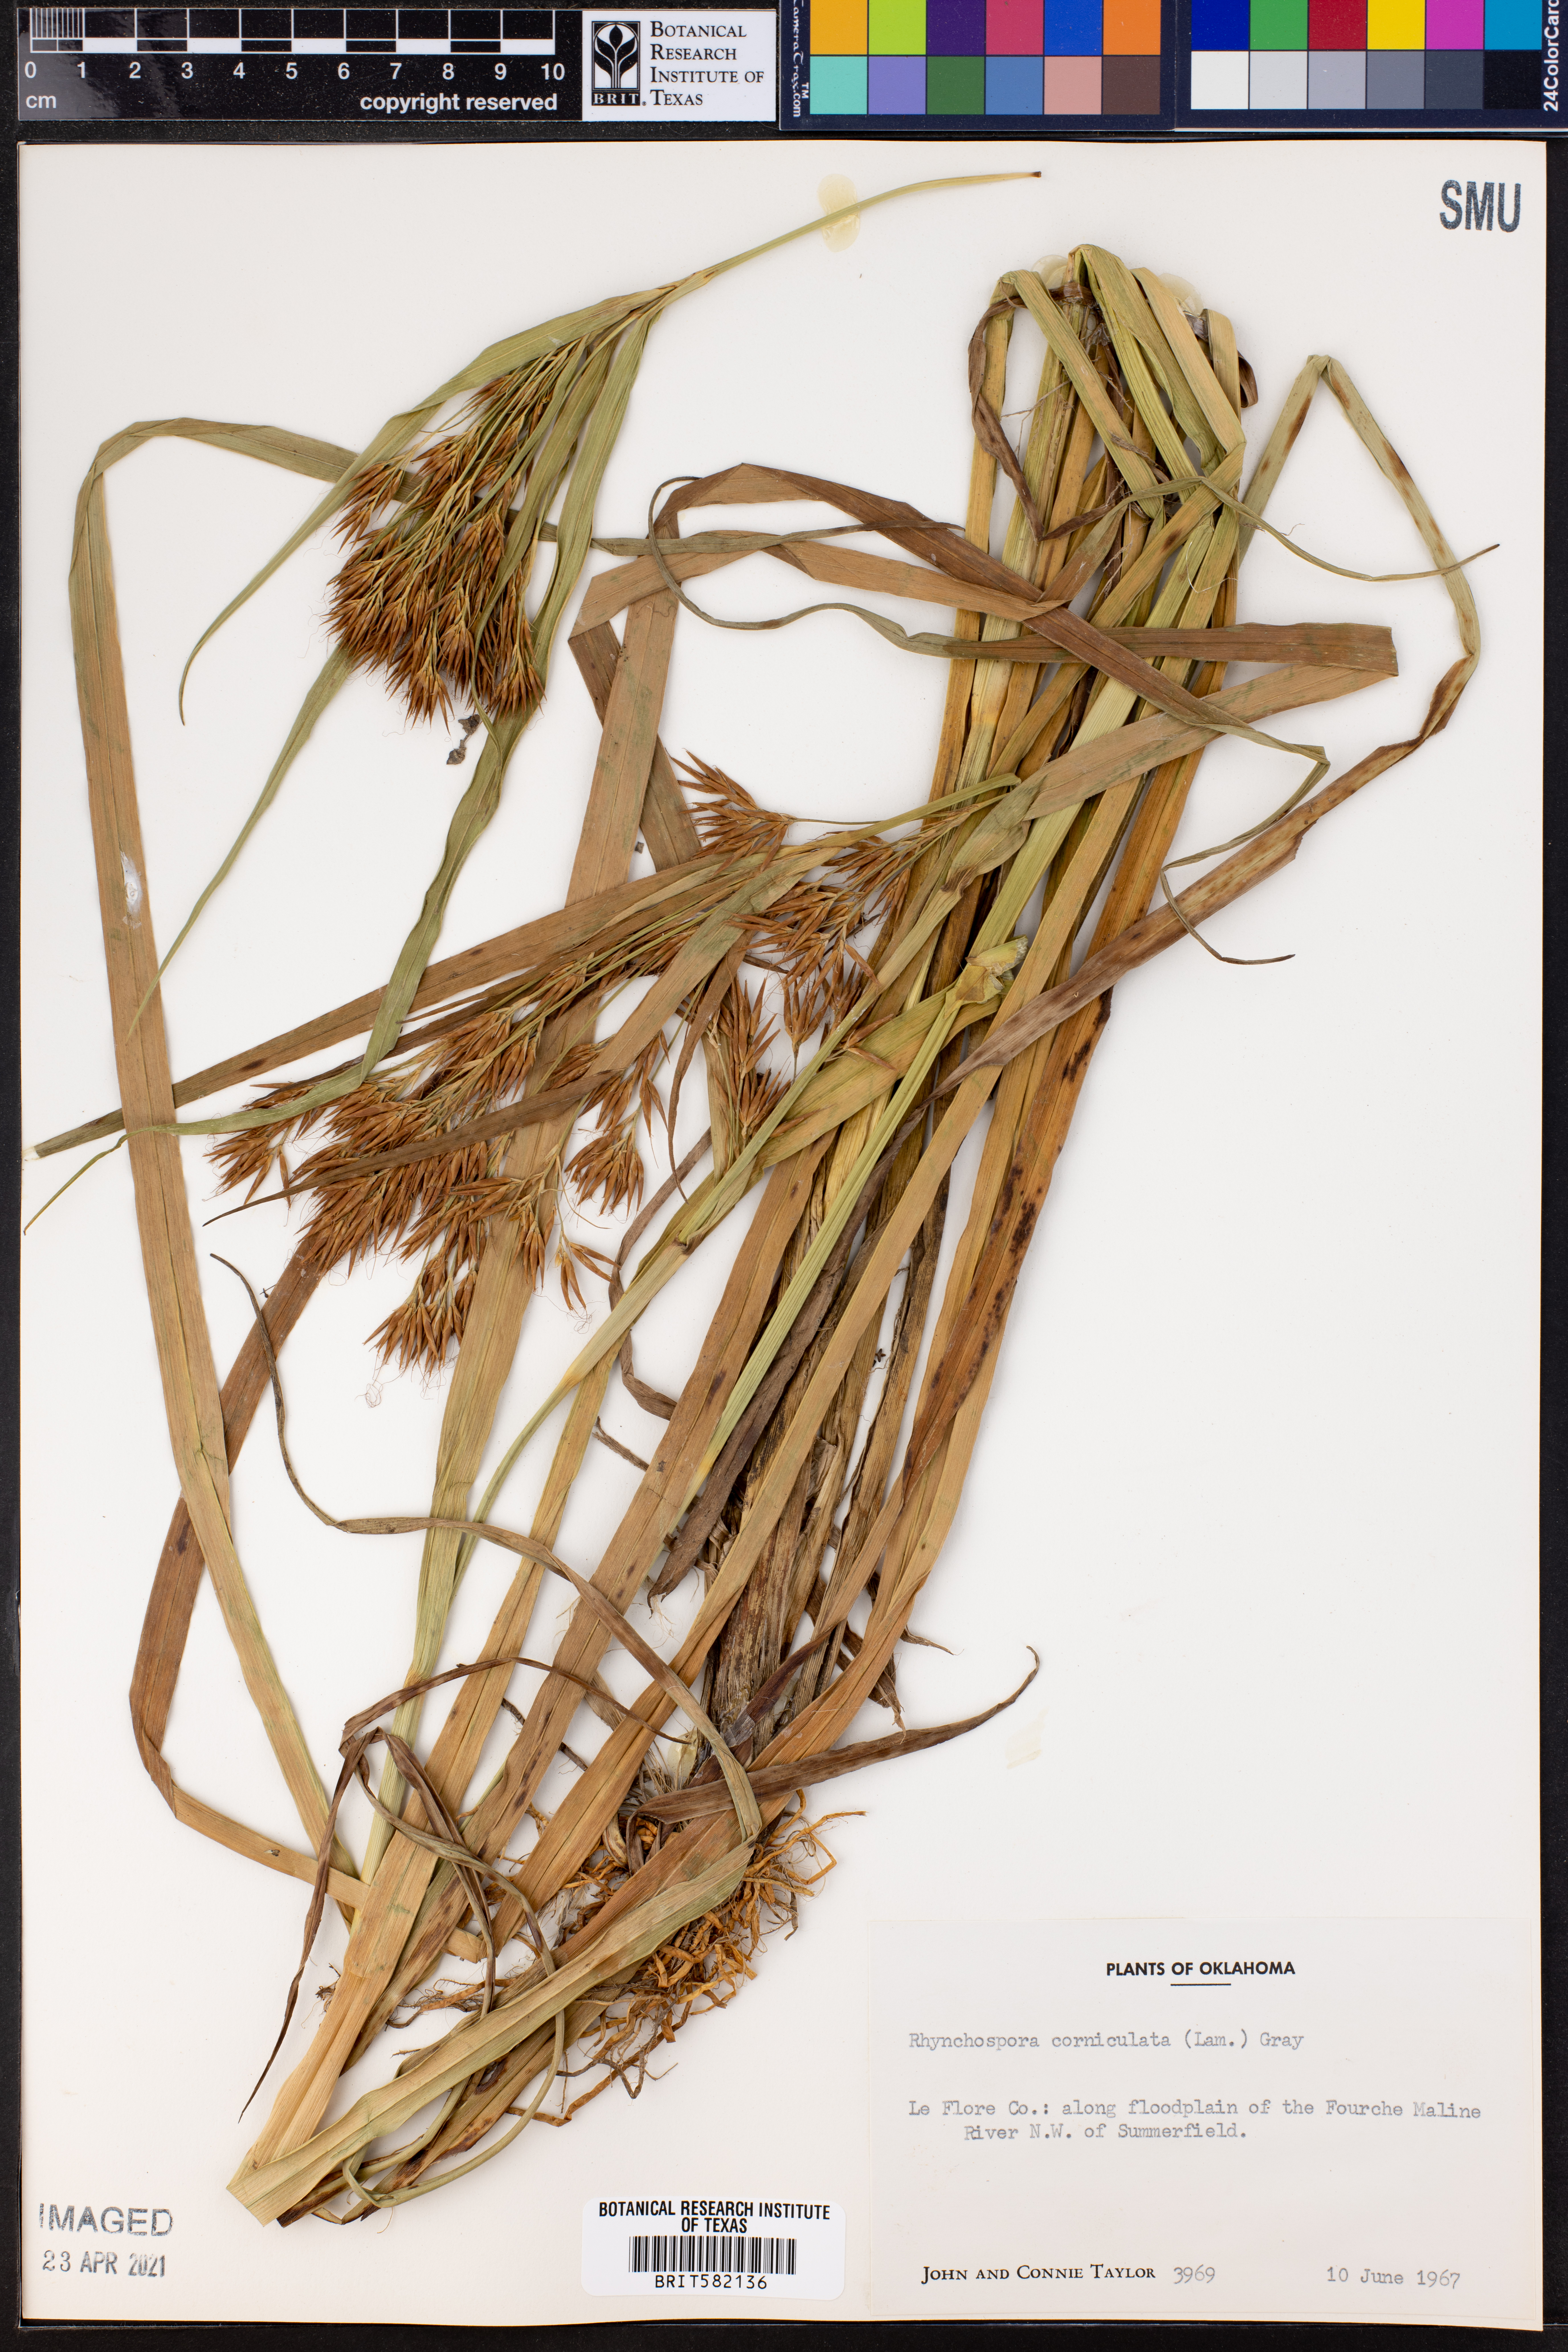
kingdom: Plantae
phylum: Tracheophyta
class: Liliopsida
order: Poales
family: Cyperaceae
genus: Rhynchospora
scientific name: Rhynchospora corniculata
